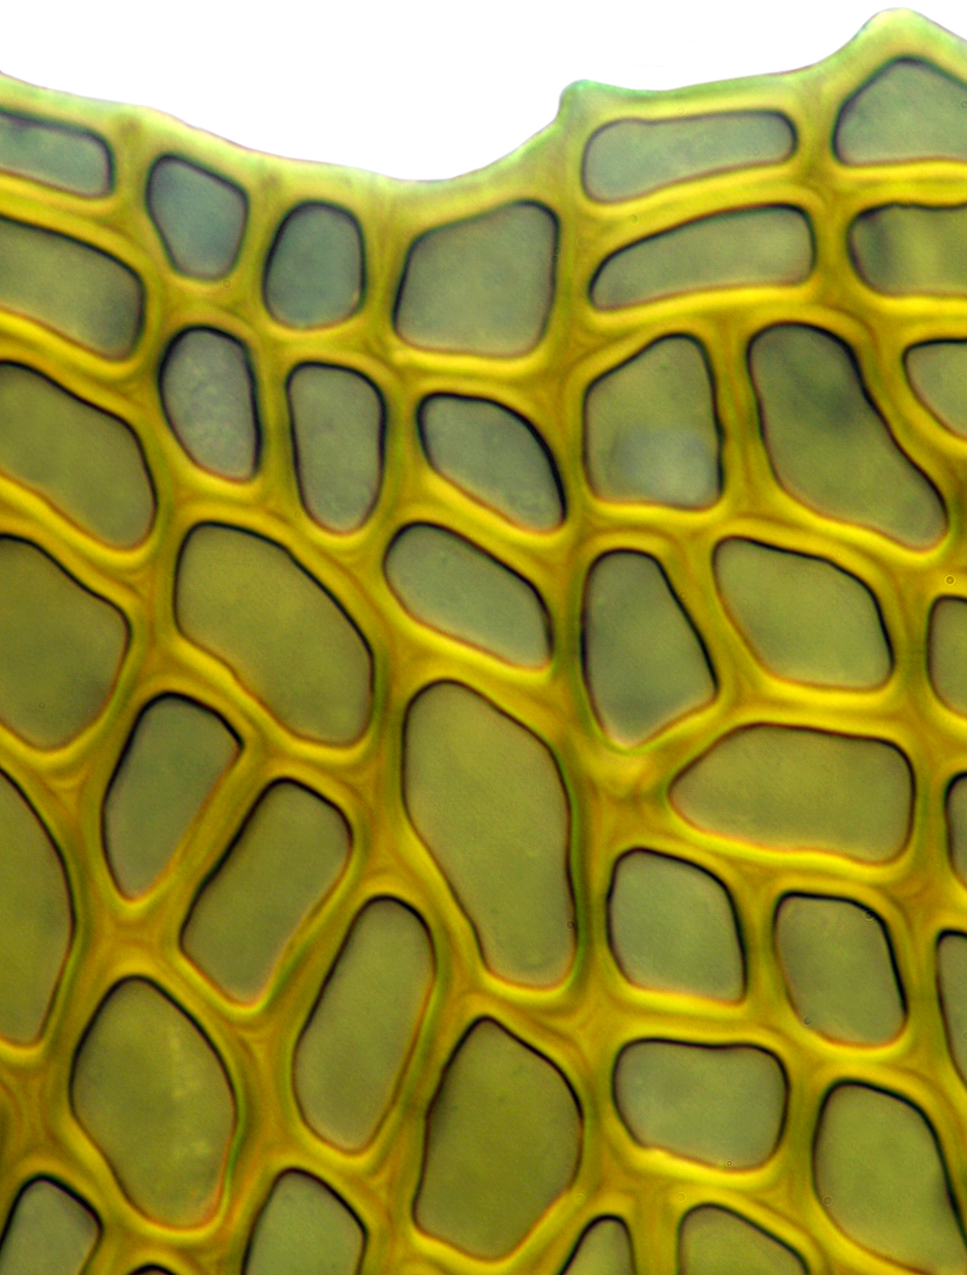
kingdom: Plantae
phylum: Bryophyta
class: Bryopsida
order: Hypnales
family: Neckeraceae
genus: Neckeromnion
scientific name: Neckeromnion lepineanum
